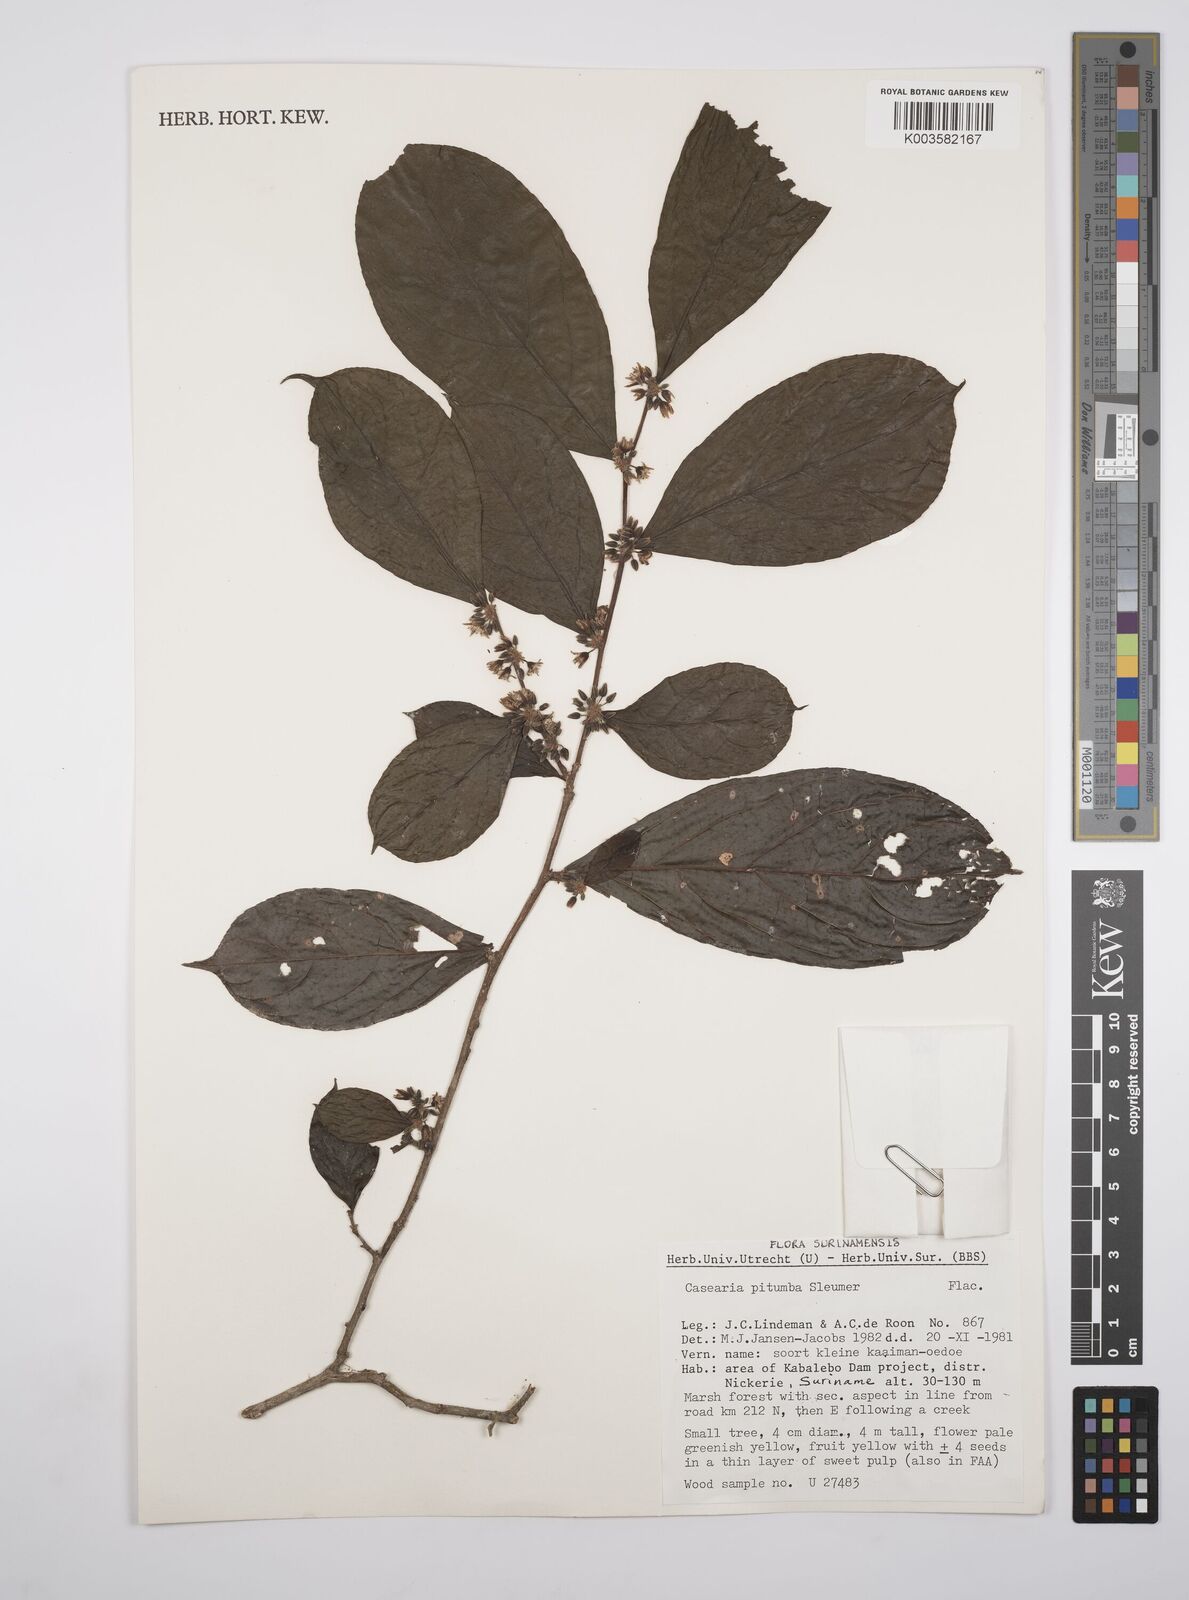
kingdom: Plantae
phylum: Tracheophyta
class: Magnoliopsida
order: Malpighiales
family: Salicaceae
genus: Casearia
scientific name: Casearia pitumba
